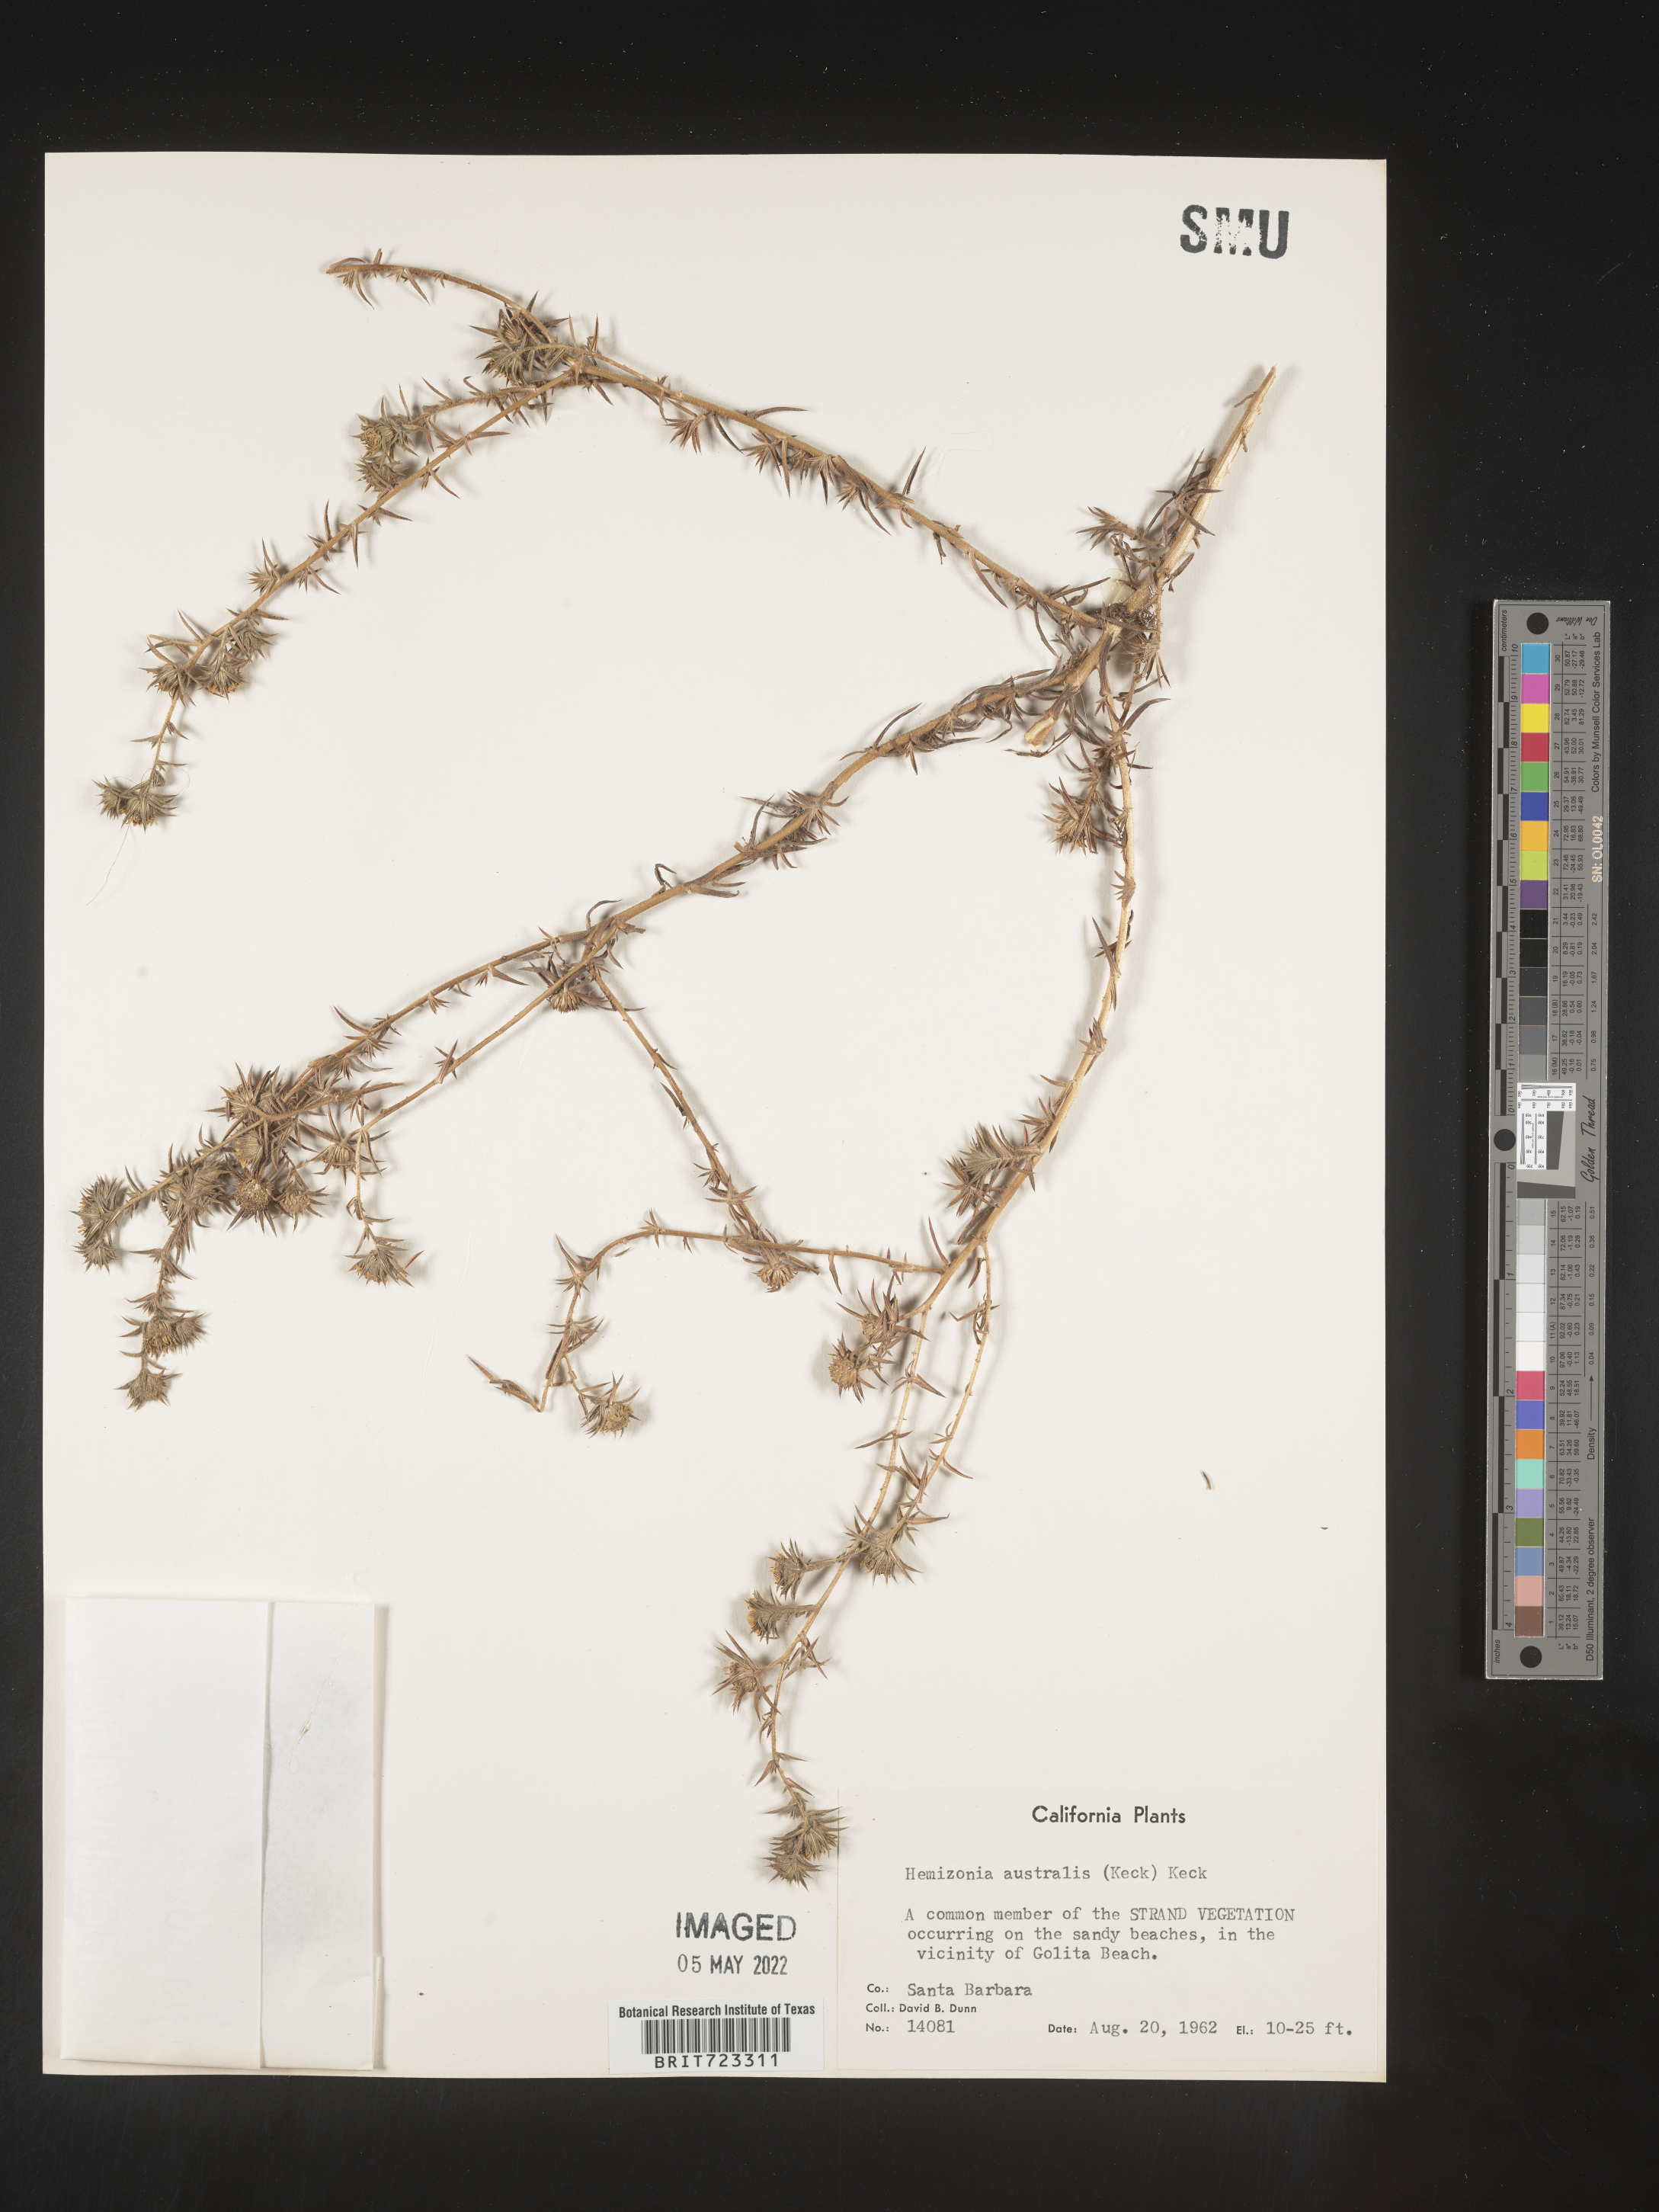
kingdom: Plantae
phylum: Tracheophyta
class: Magnoliopsida
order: Asterales
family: Asteraceae
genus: Hemizonia
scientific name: Hemizonia
